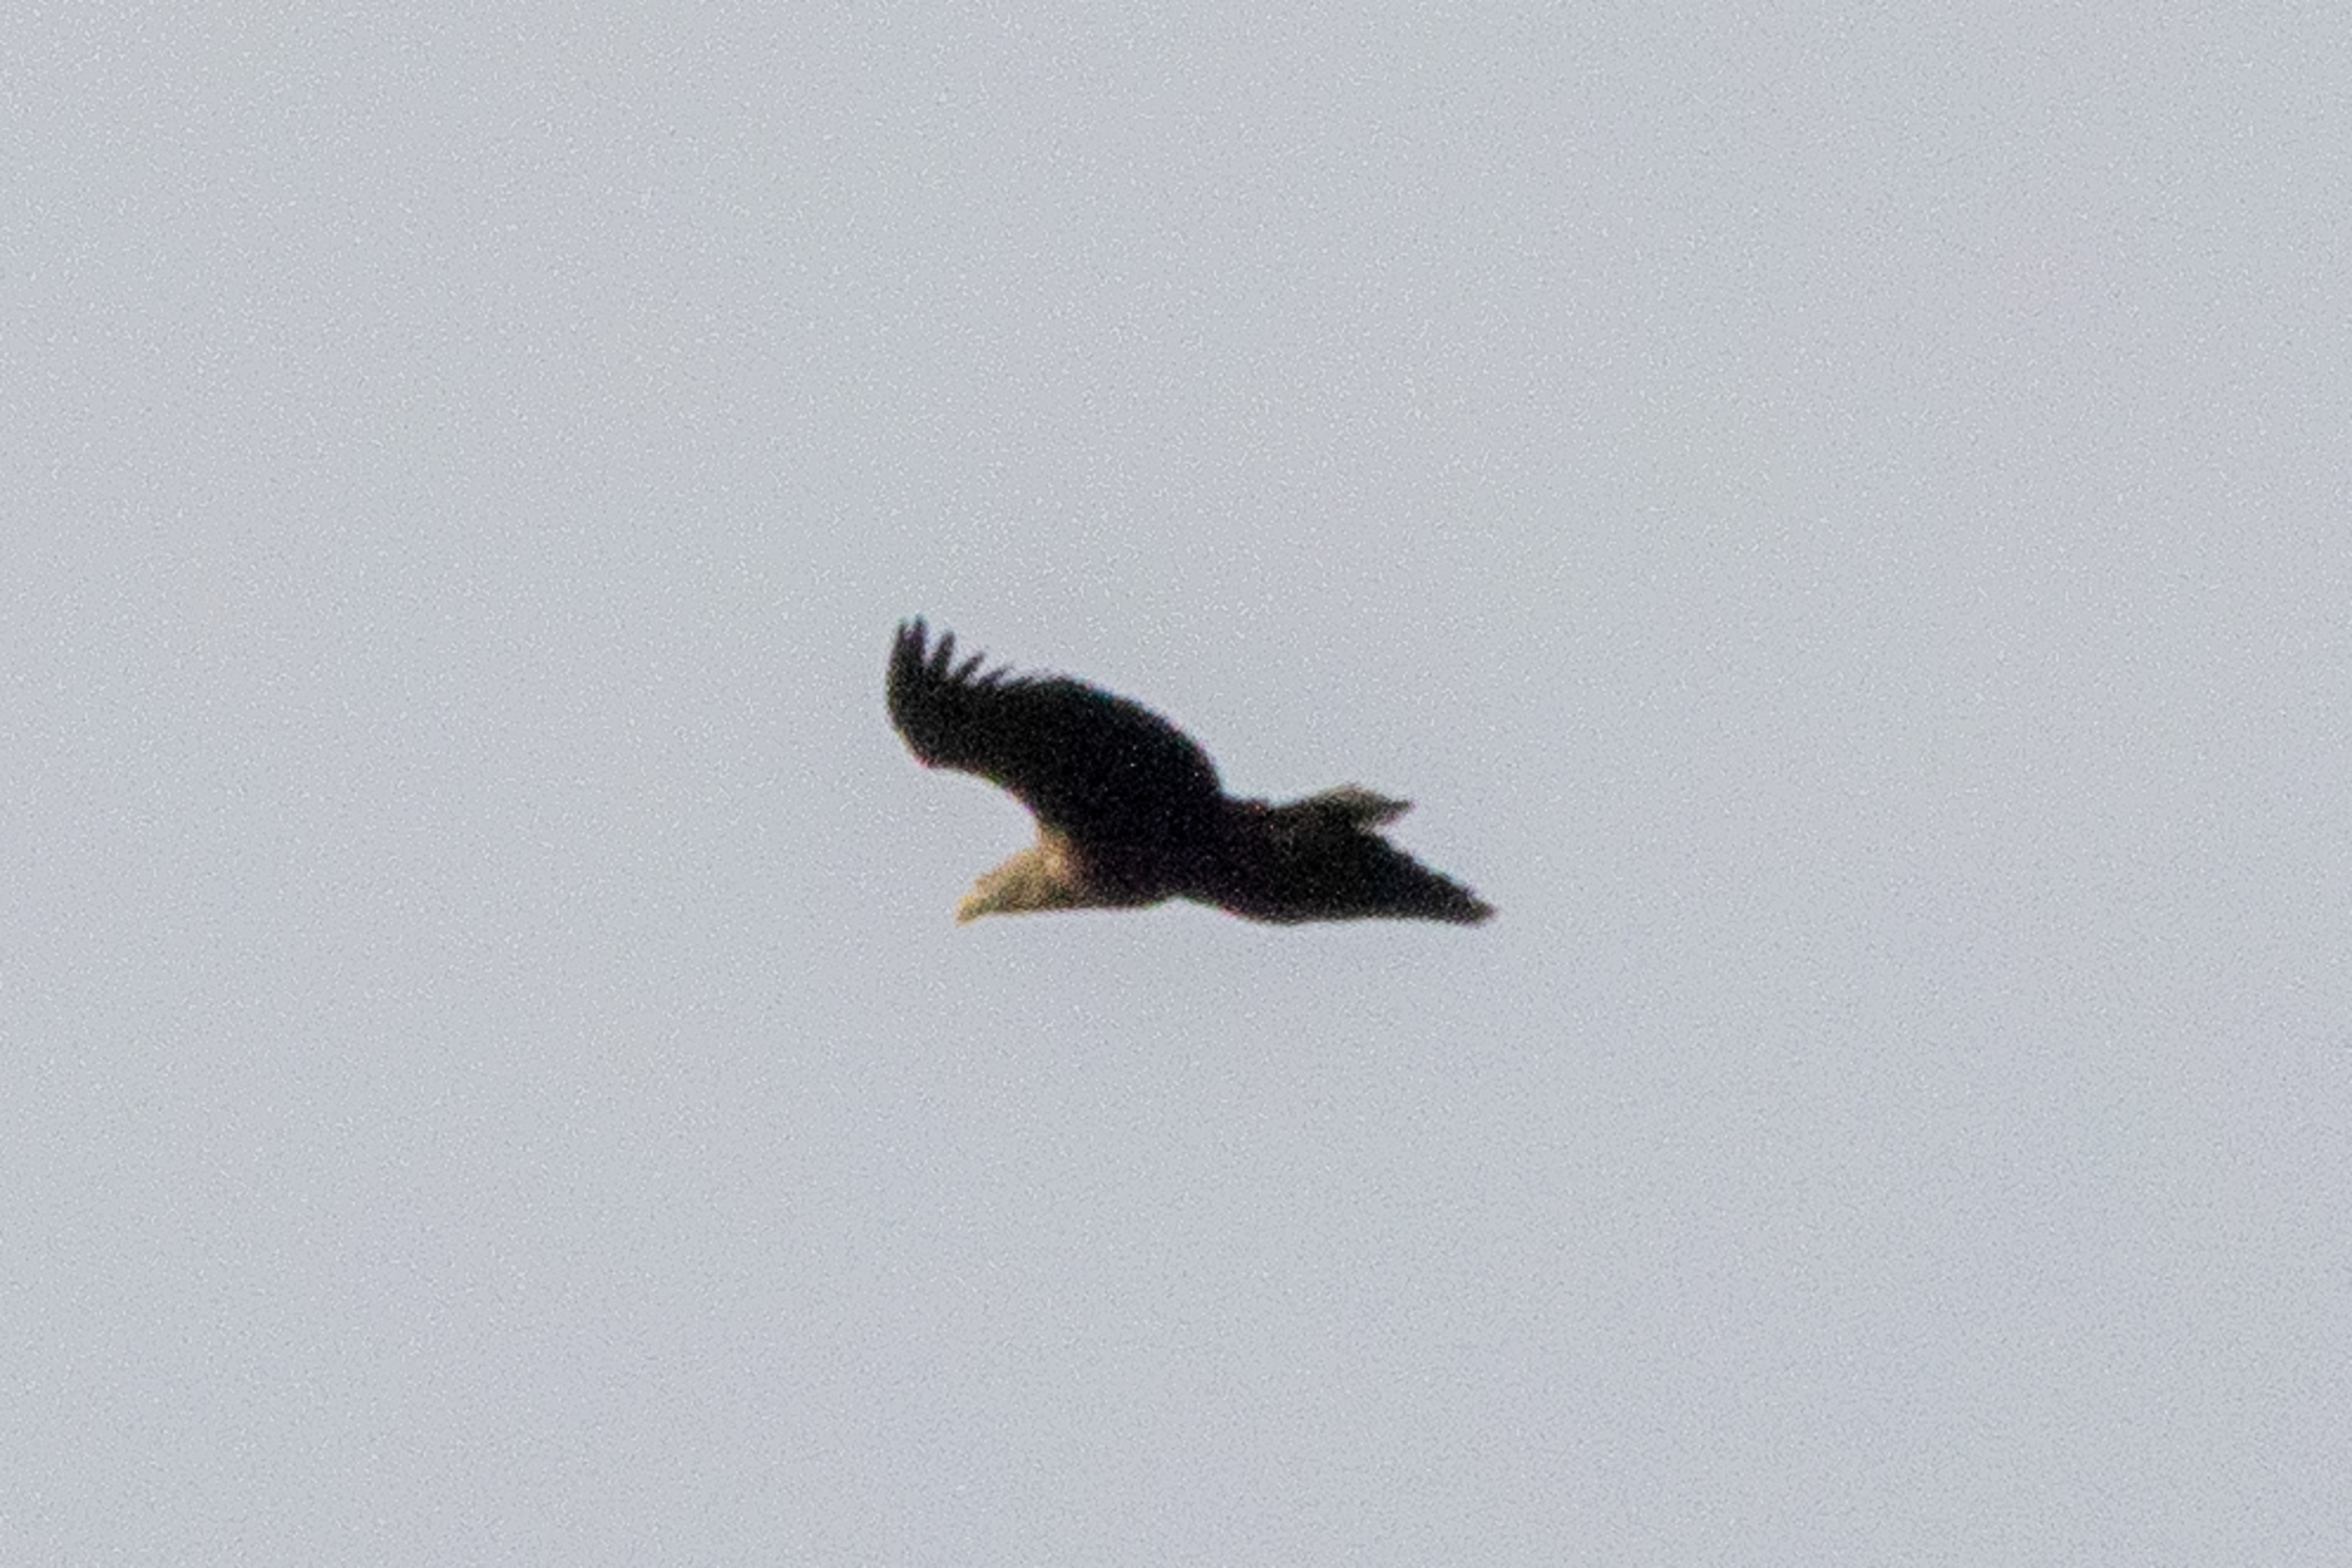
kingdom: Animalia
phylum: Chordata
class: Aves
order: Accipitriformes
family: Accipitridae
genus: Haliaeetus
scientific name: Haliaeetus albicilla
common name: Havørn
